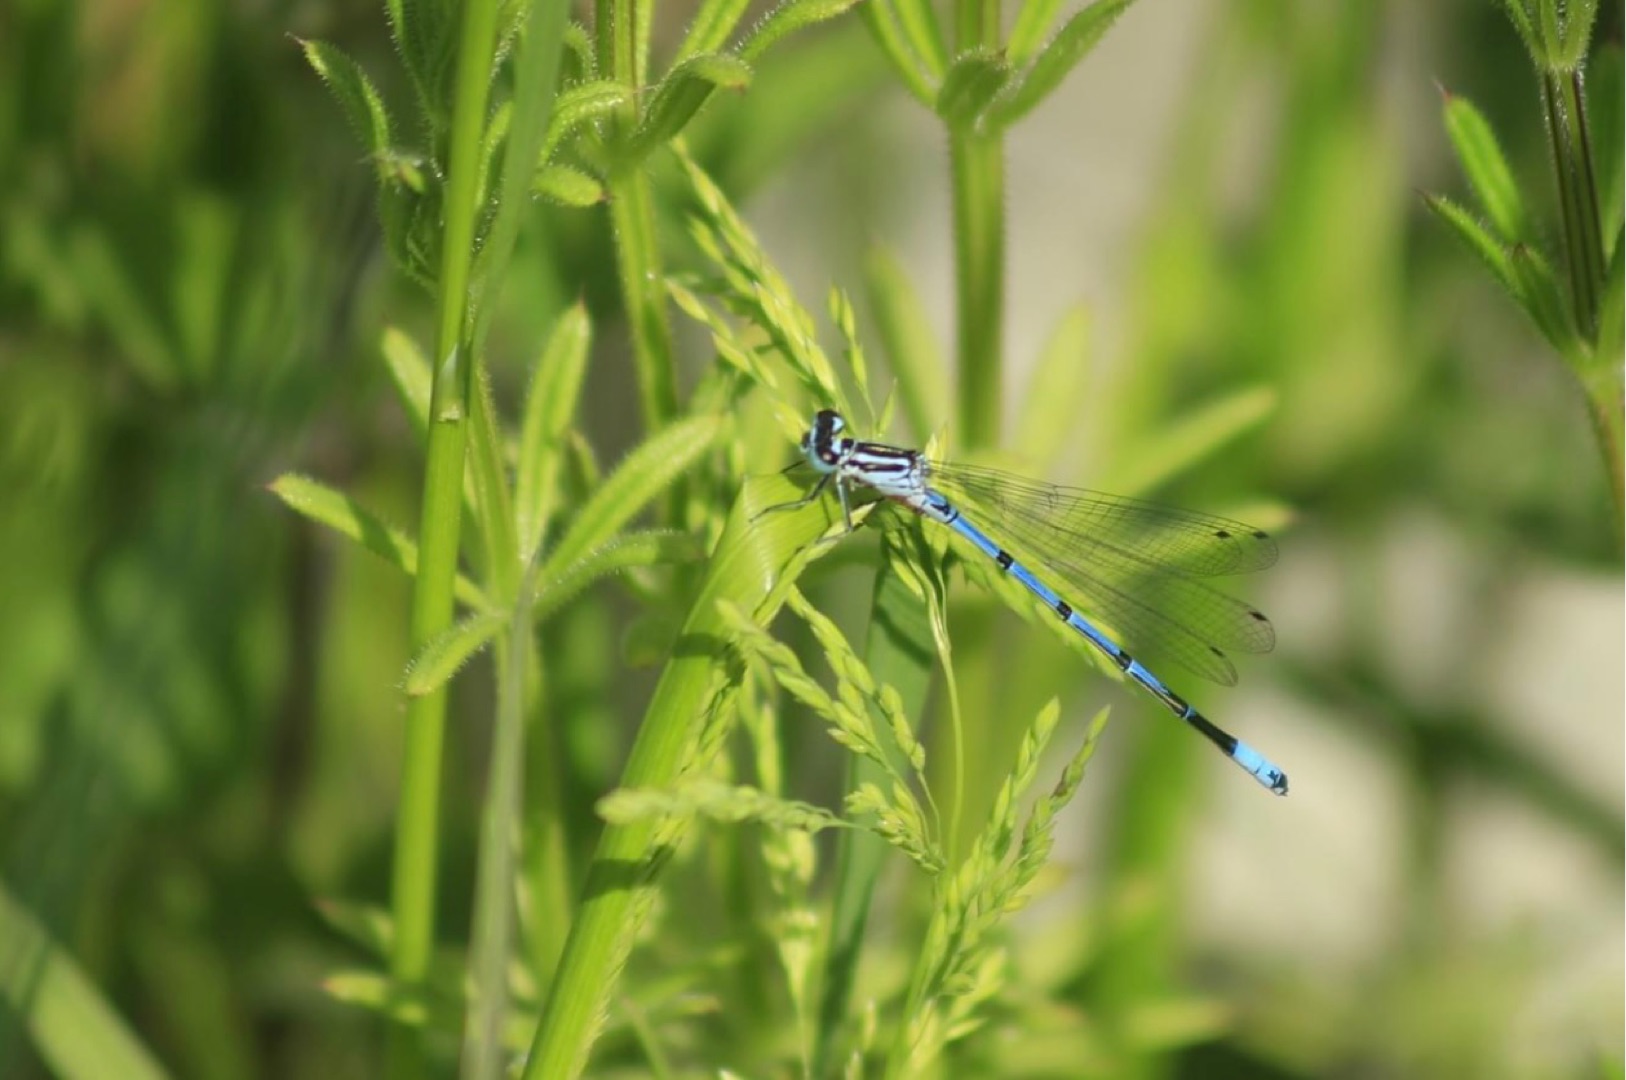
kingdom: Animalia
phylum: Arthropoda
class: Insecta
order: Odonata
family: Coenagrionidae
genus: Coenagrion
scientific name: Coenagrion puella
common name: Hestesko-vandnymfe
